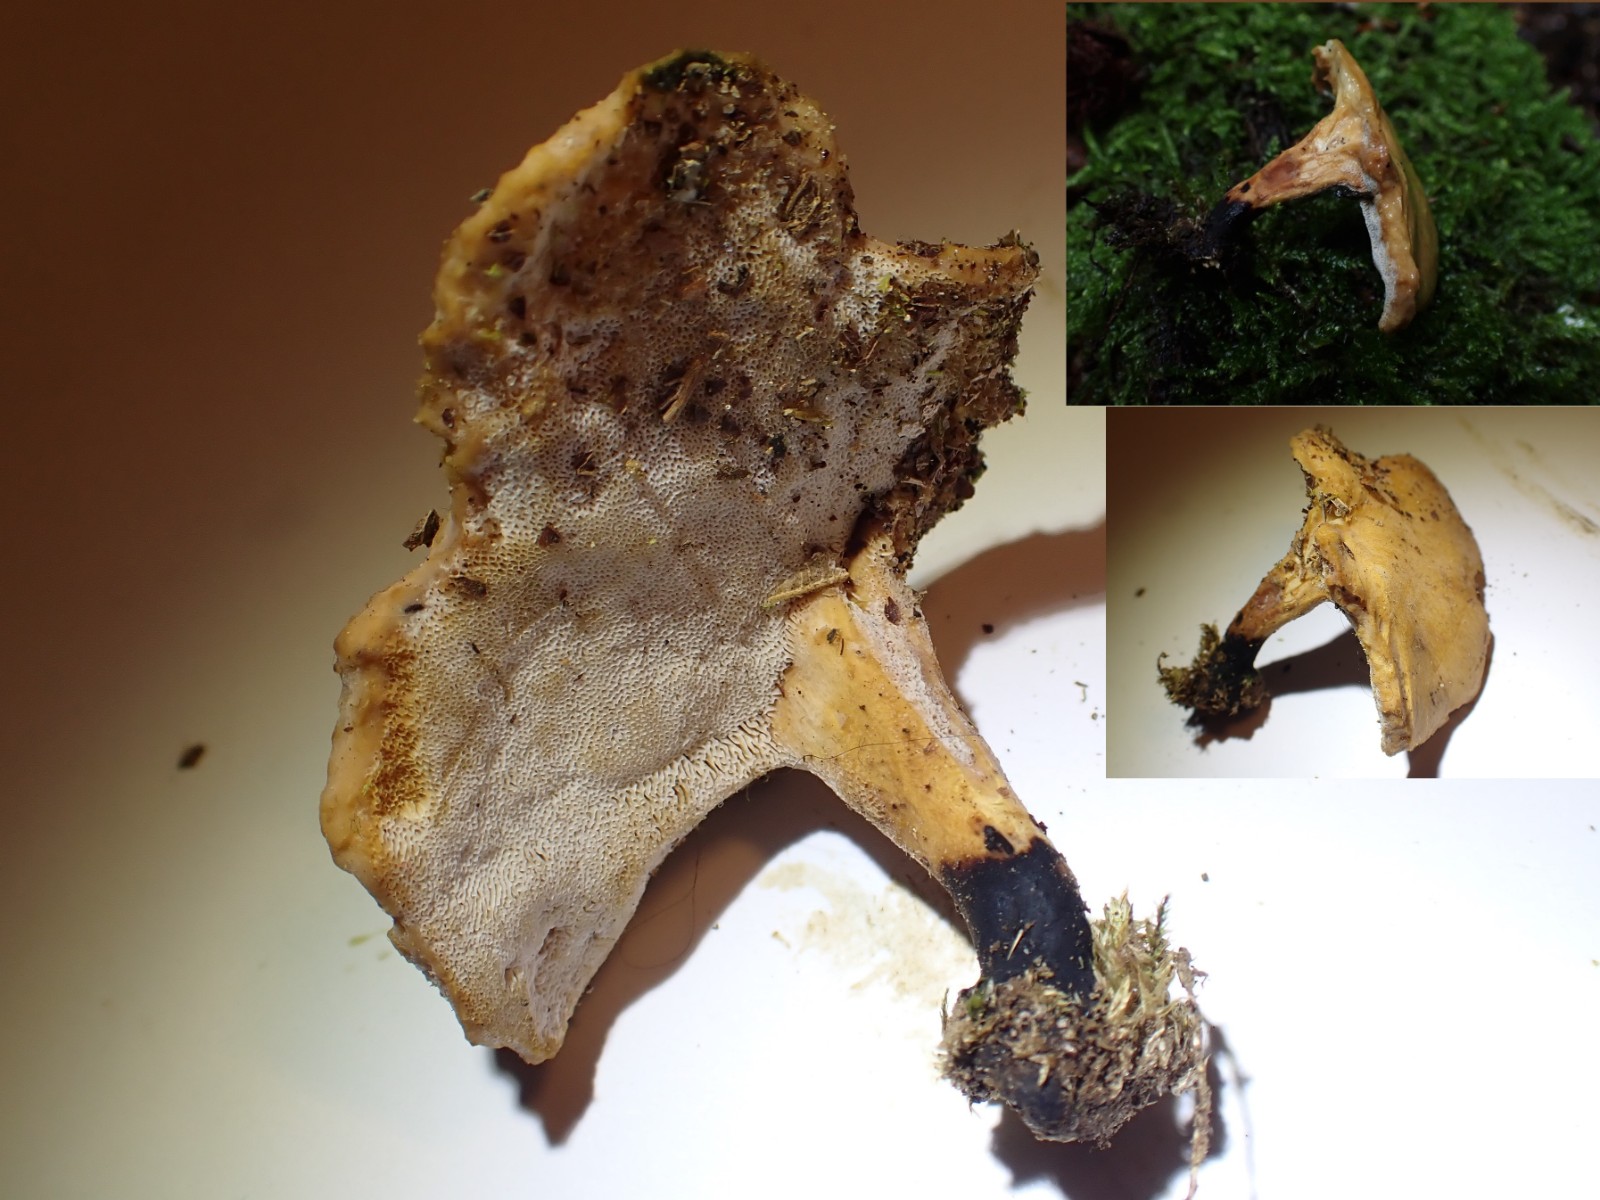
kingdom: Fungi
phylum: Basidiomycota
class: Agaricomycetes
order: Polyporales
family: Polyporaceae
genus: Cerioporus
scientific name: Cerioporus varius
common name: foranderlig stilkporesvamp
